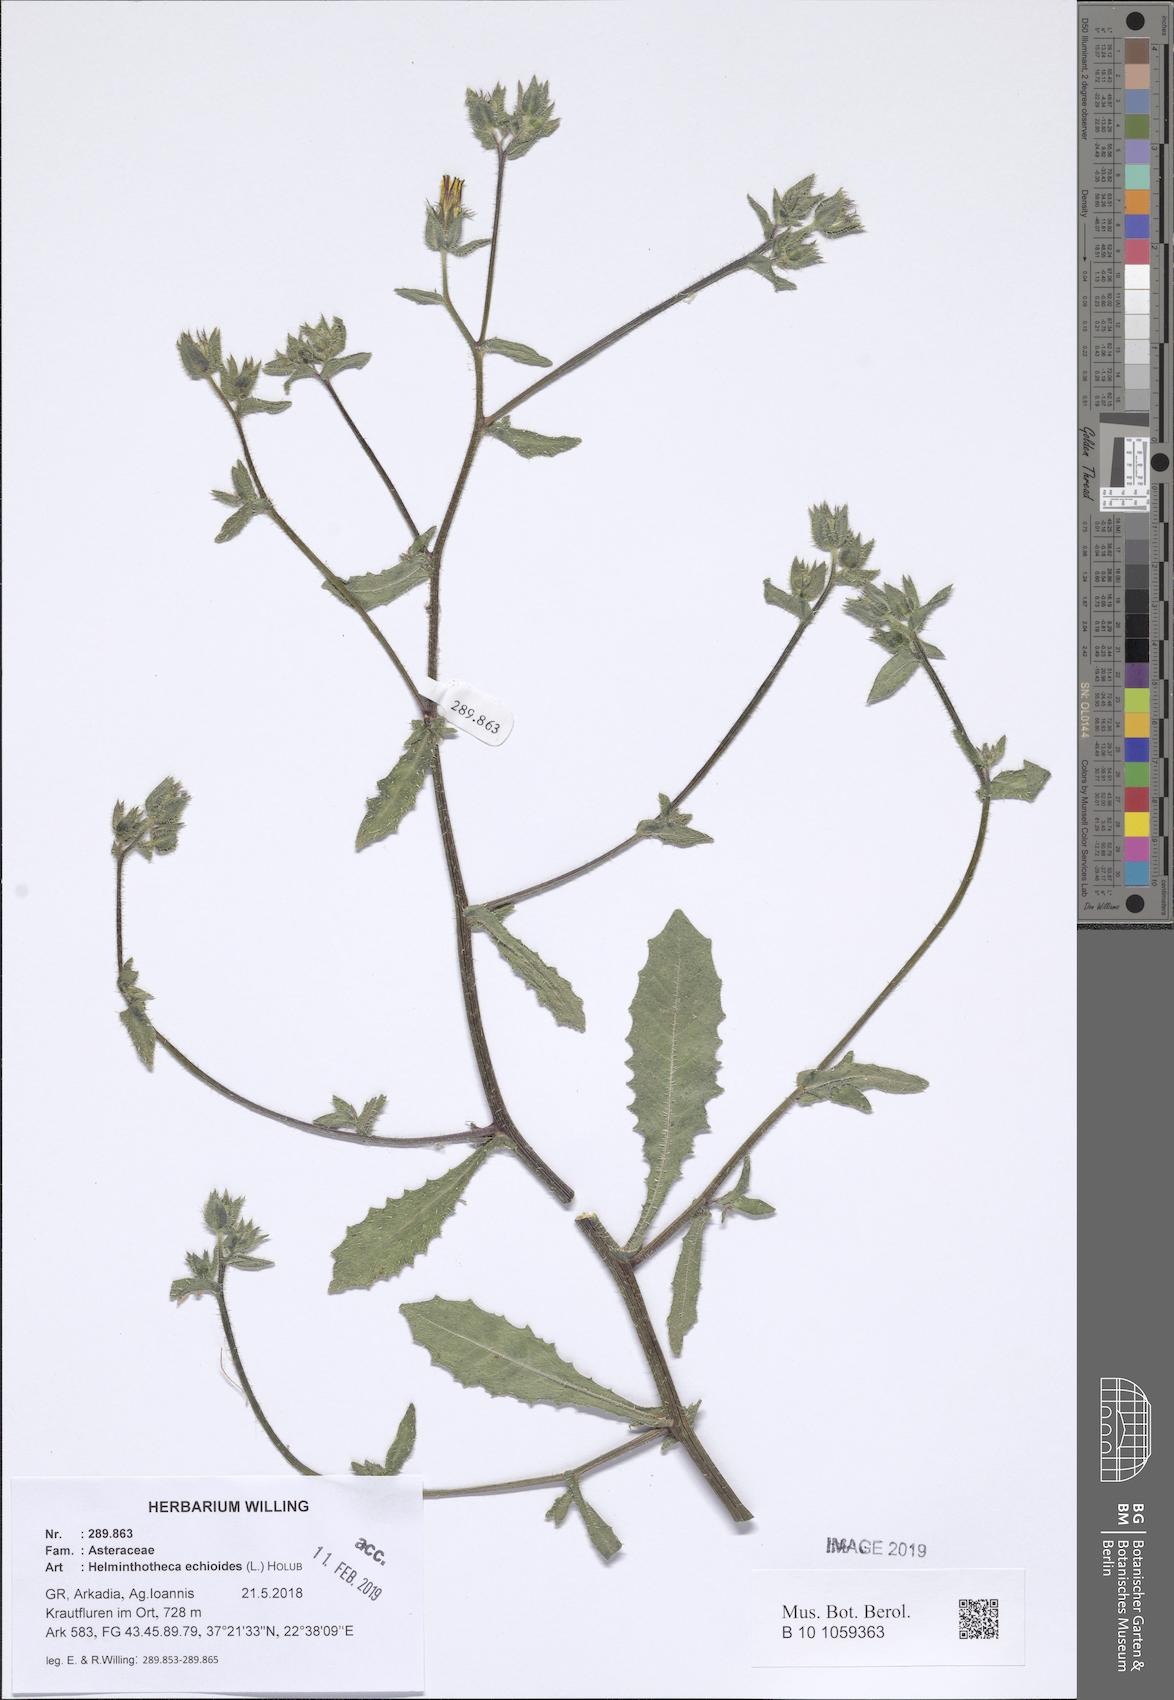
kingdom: Plantae
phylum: Tracheophyta
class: Magnoliopsida
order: Asterales
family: Asteraceae
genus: Helminthotheca
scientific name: Helminthotheca echioides
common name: Ox-tongue
